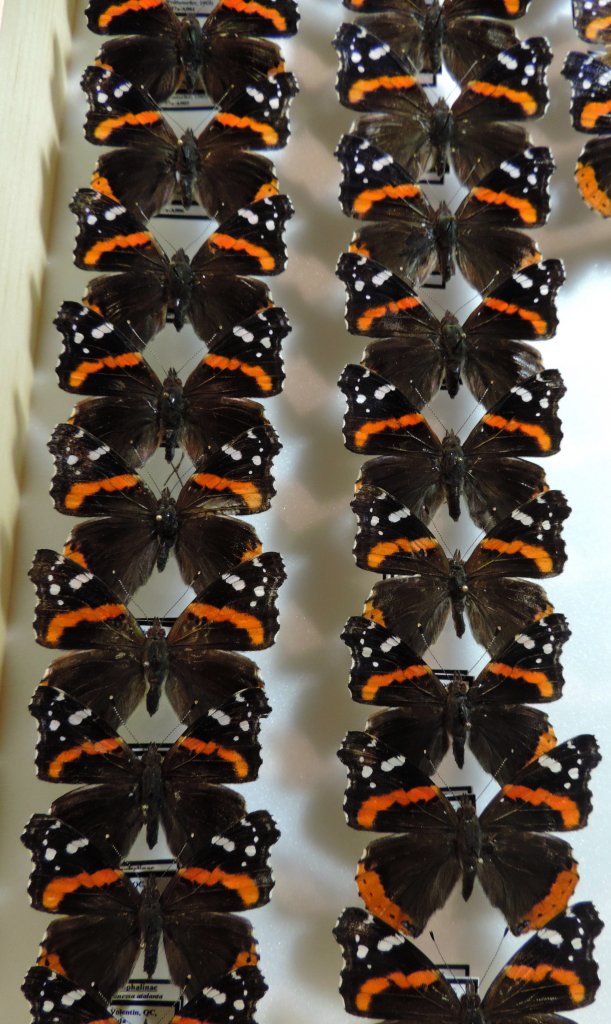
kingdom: Animalia
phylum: Arthropoda
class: Insecta
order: Lepidoptera
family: Nymphalidae
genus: Vanessa
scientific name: Vanessa atalanta
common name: Red Admiral
